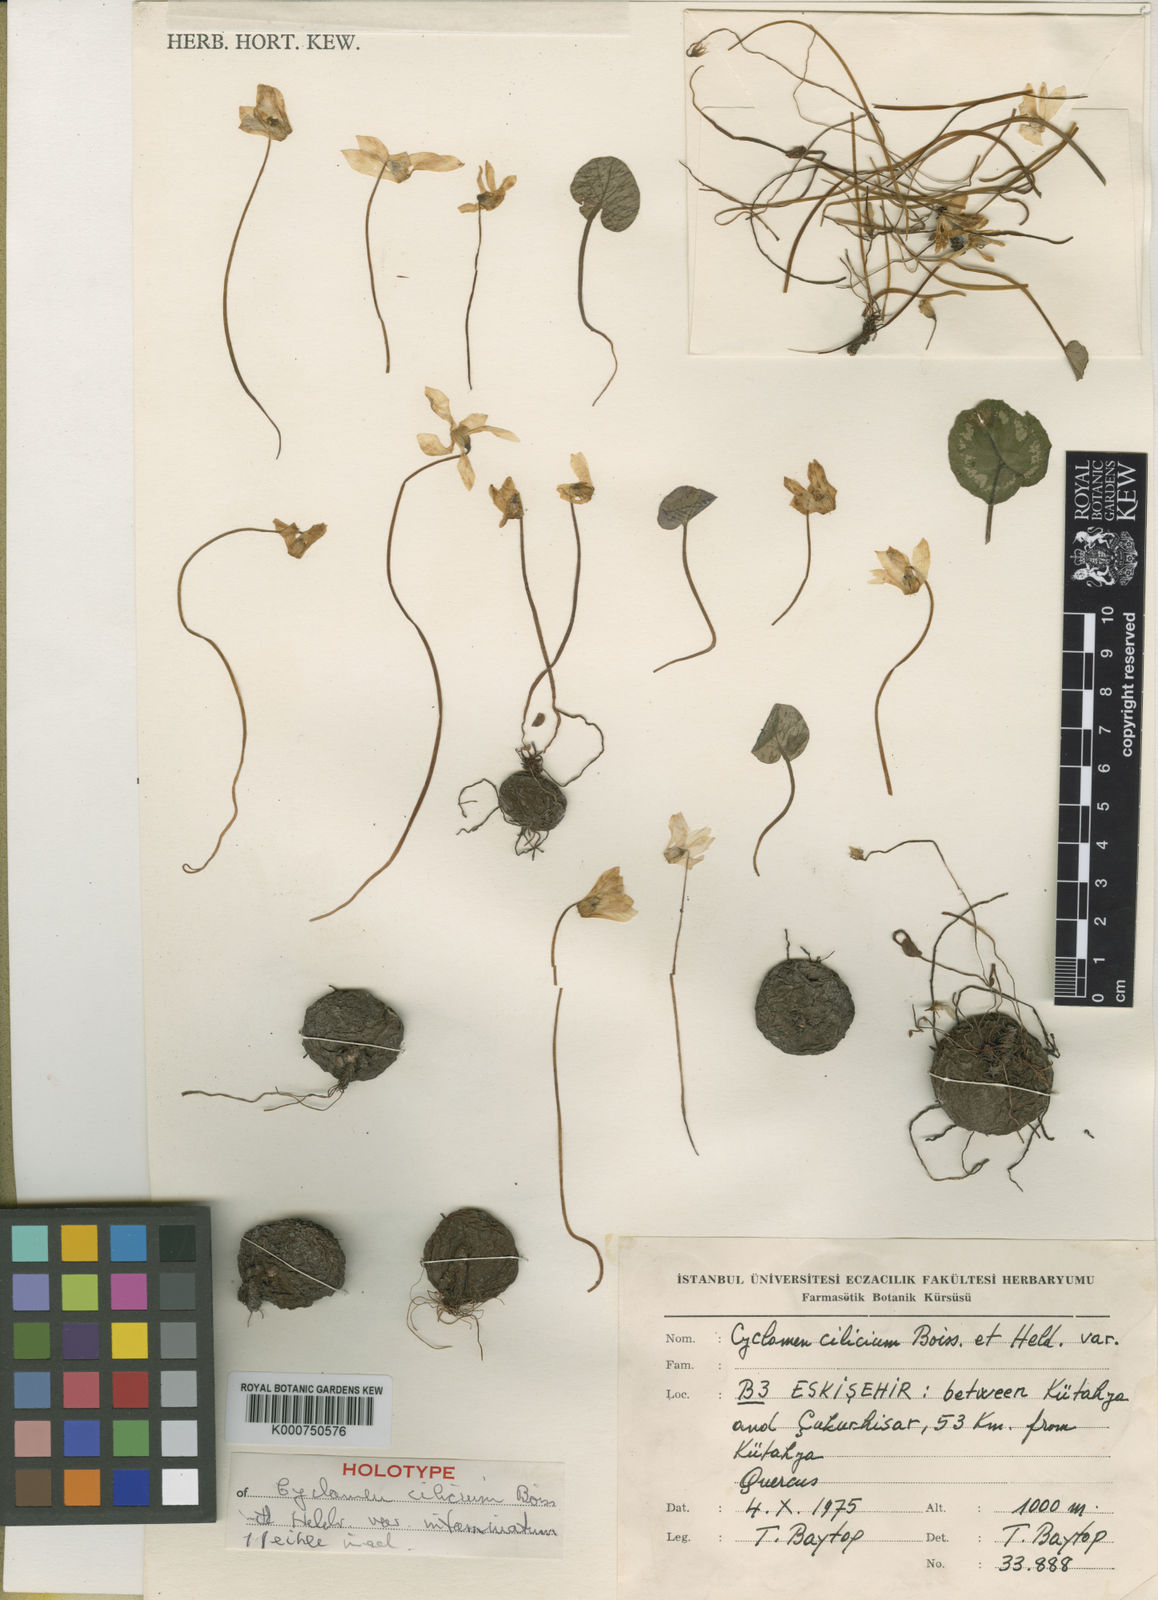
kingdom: Plantae
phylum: Tracheophyta
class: Magnoliopsida
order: Ericales
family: Primulaceae
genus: Cyclamen
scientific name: Cyclamen cilicium
